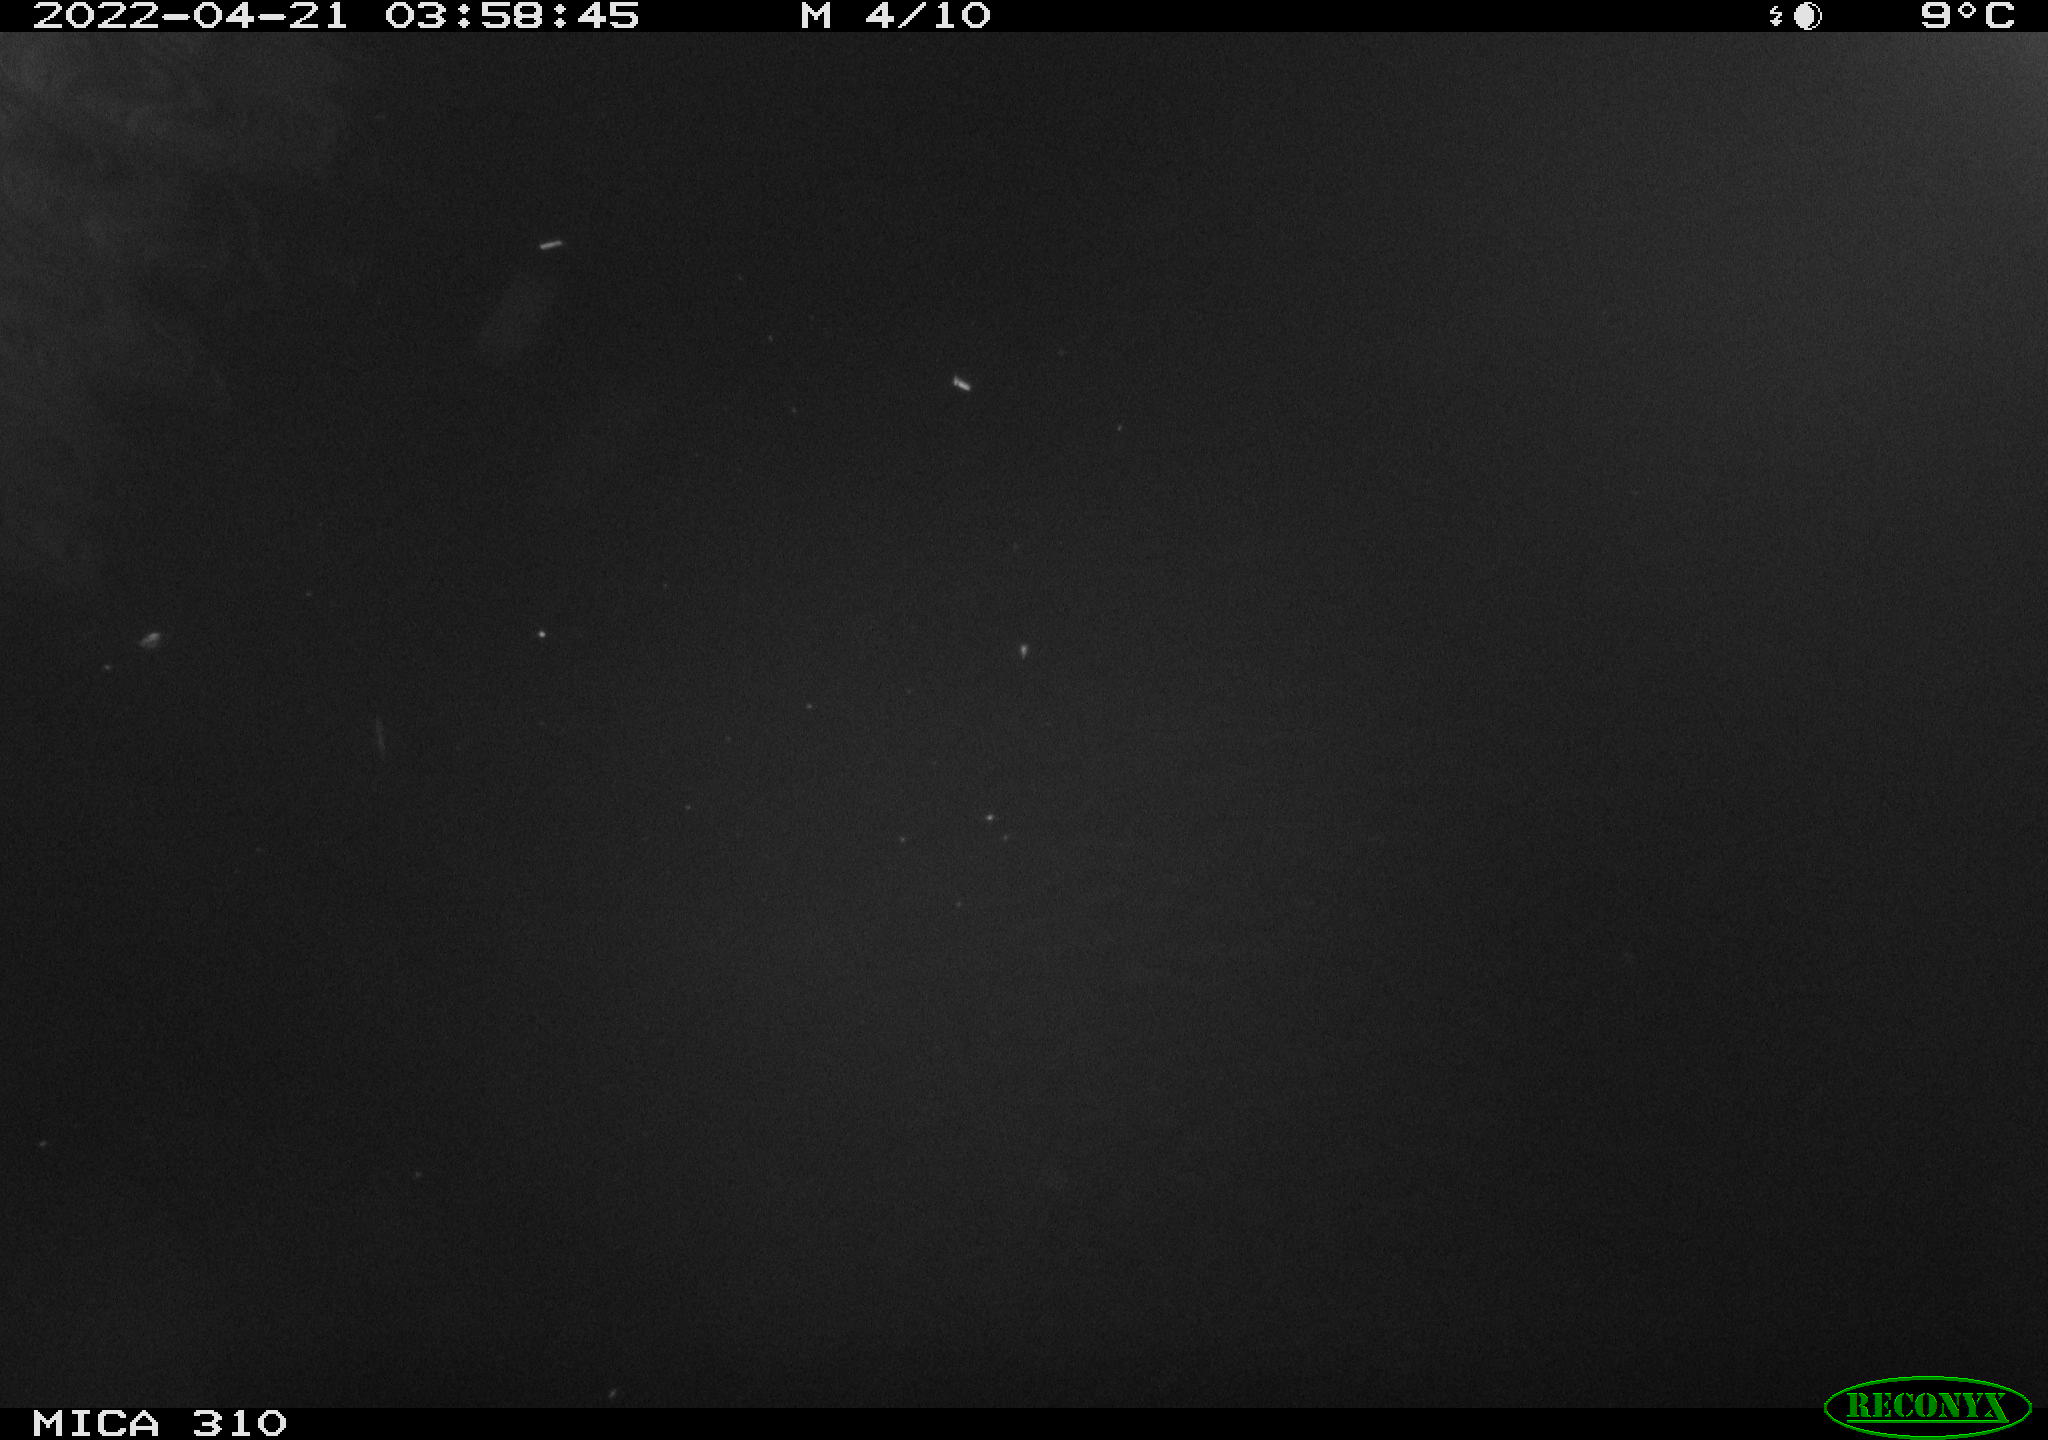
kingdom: Animalia
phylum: Chordata
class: Aves
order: Anseriformes
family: Anatidae
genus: Anas
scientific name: Anas platyrhynchos
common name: Mallard
